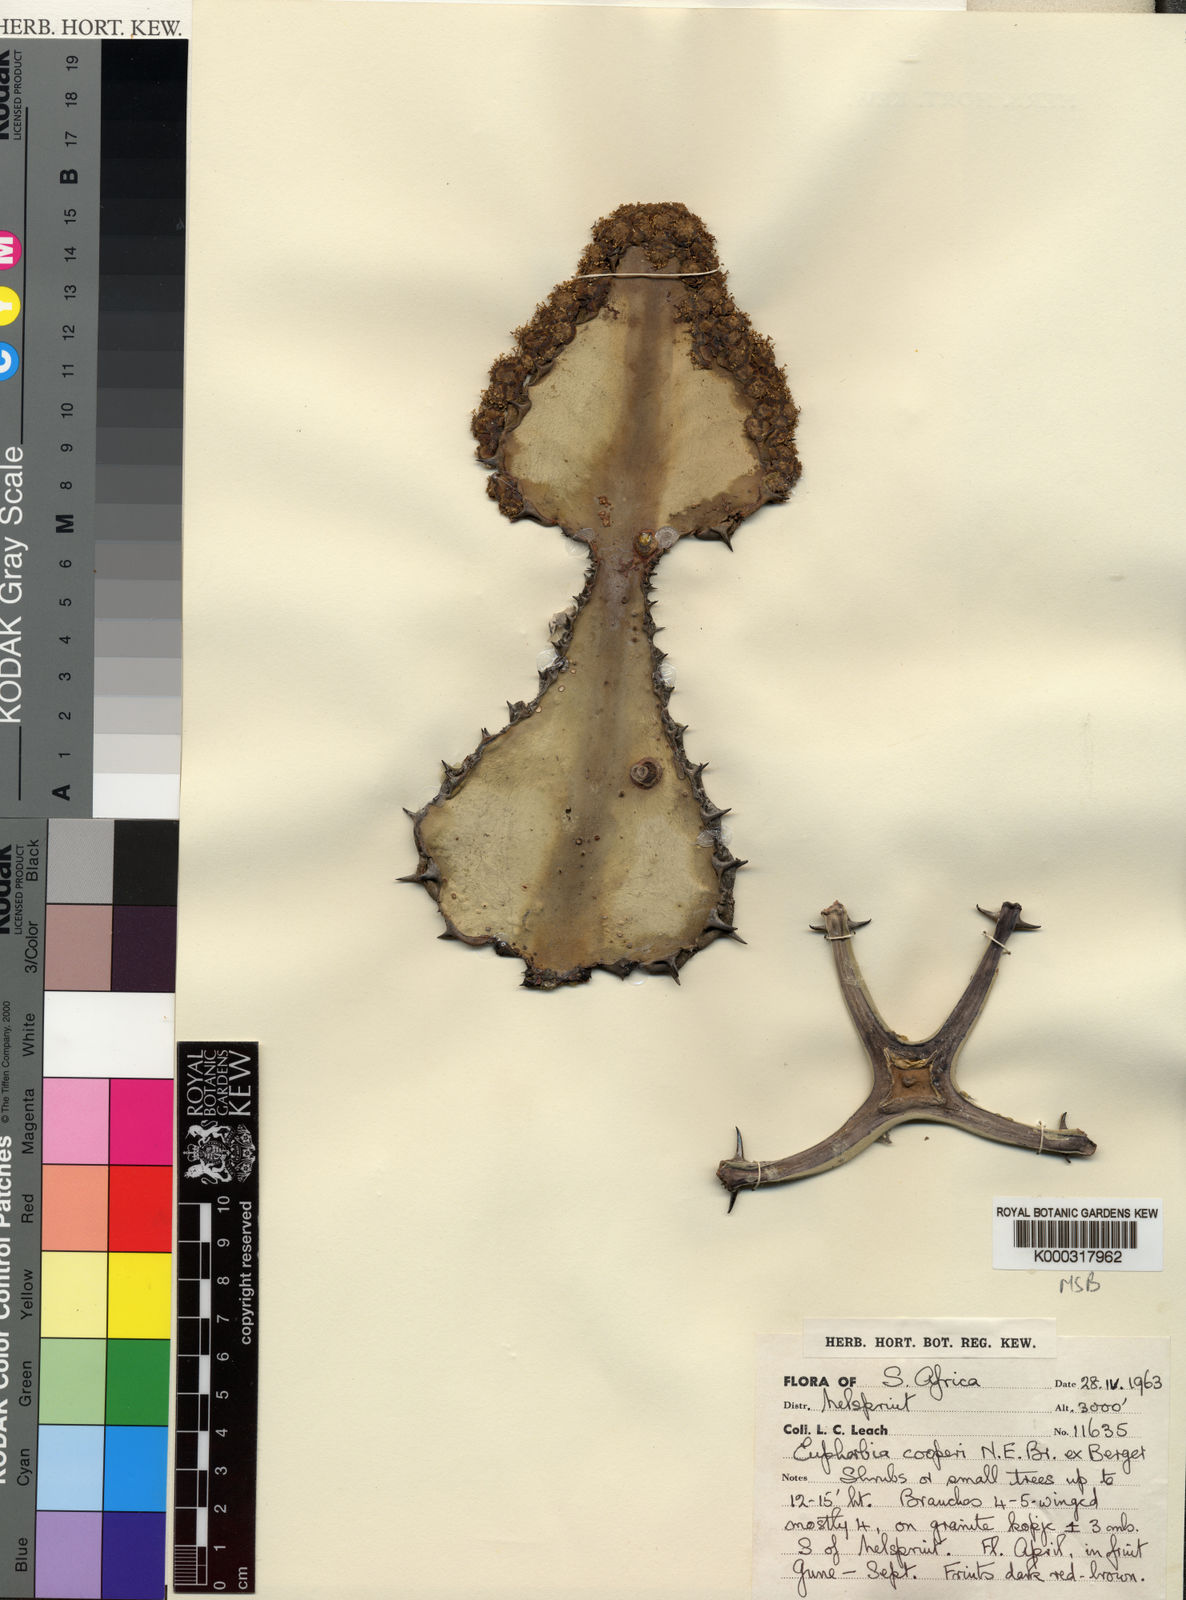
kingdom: Plantae
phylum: Tracheophyta
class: Magnoliopsida
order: Malpighiales
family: Euphorbiaceae
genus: Euphorbia
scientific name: Euphorbia cooperi
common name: Candelabra tree
